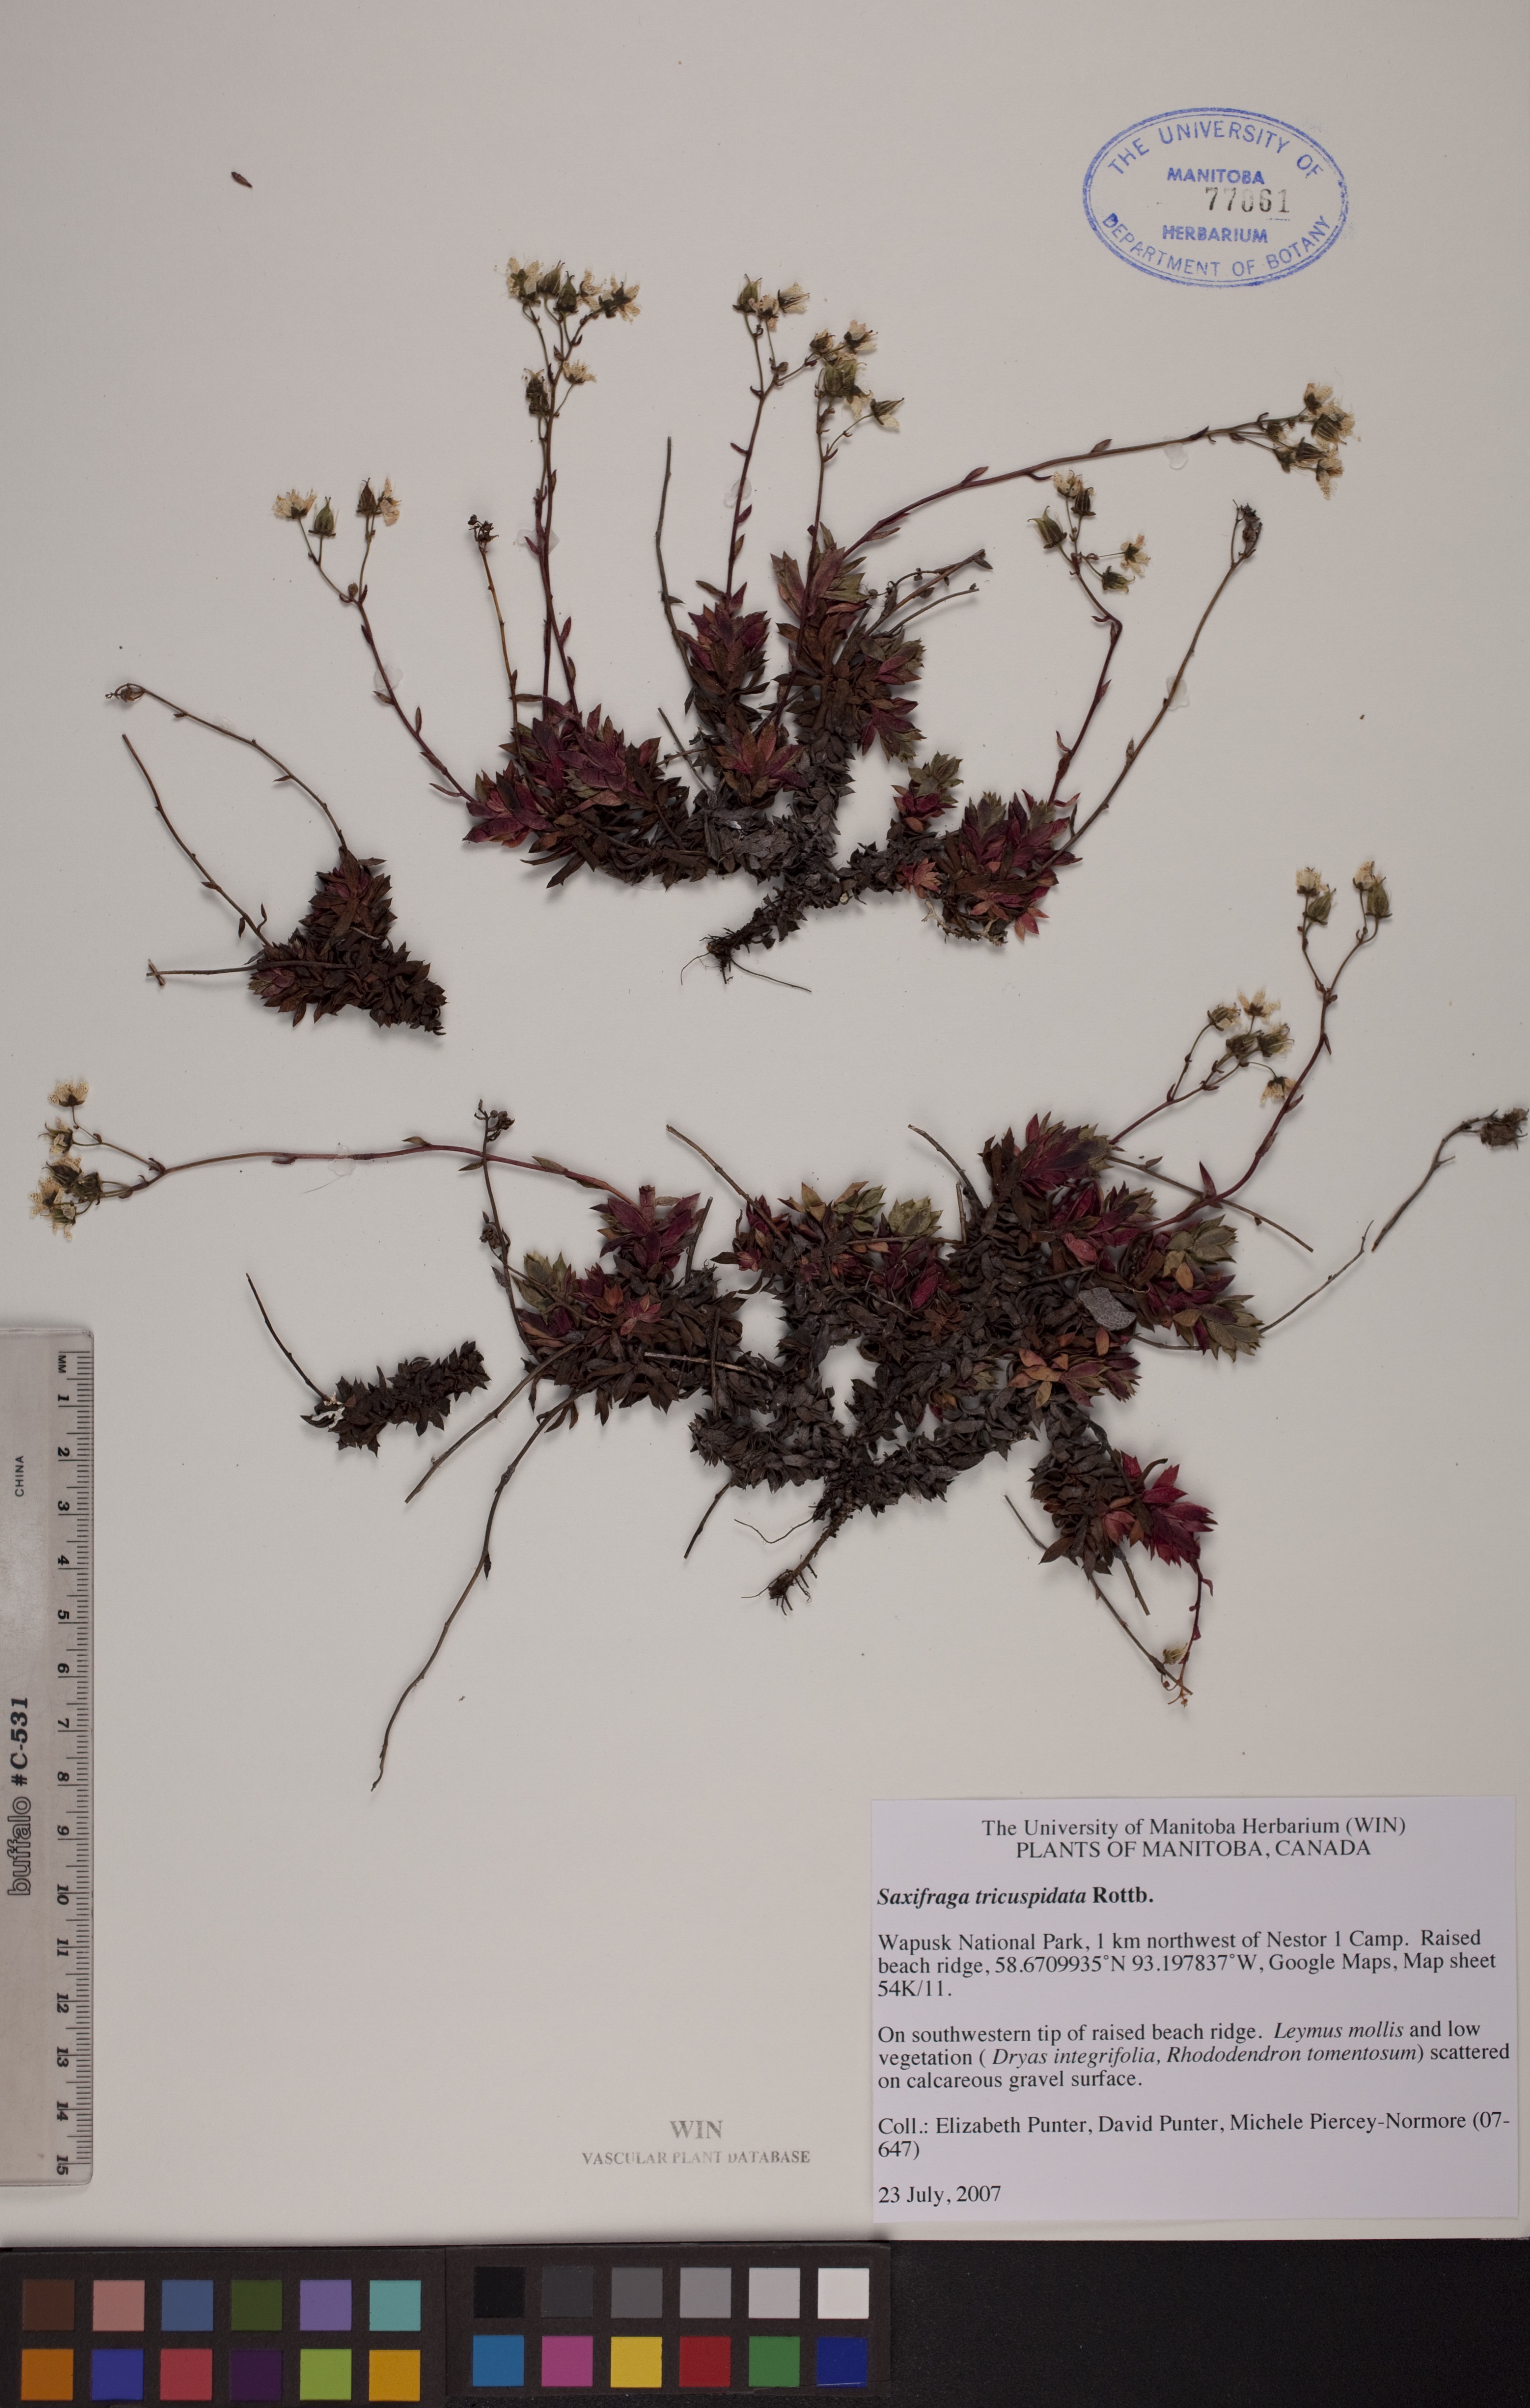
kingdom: Plantae
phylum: Tracheophyta
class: Magnoliopsida
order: Saxifragales
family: Saxifragaceae
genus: Saxifraga
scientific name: Saxifraga tricuspidata
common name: Prickly saxifrage
